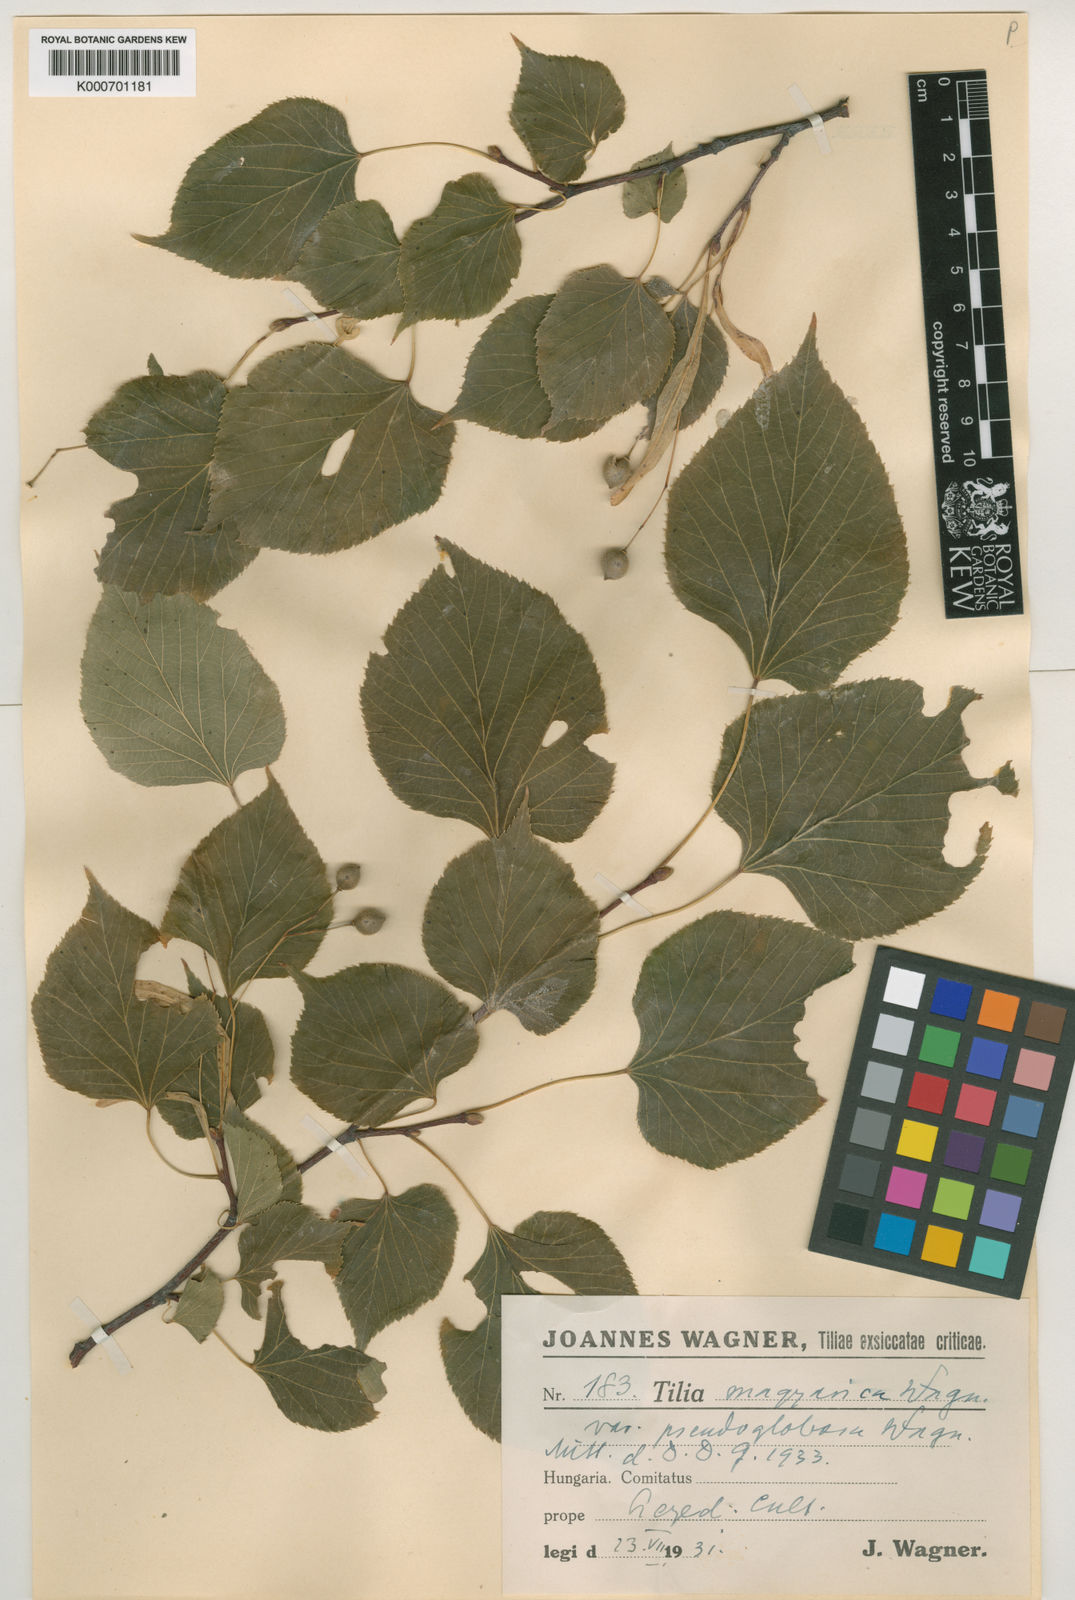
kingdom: Plantae
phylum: Tracheophyta
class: Magnoliopsida
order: Malvales
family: Malvaceae
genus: Tilia
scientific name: Tilia platyphyllos
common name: Large-leaved lime
